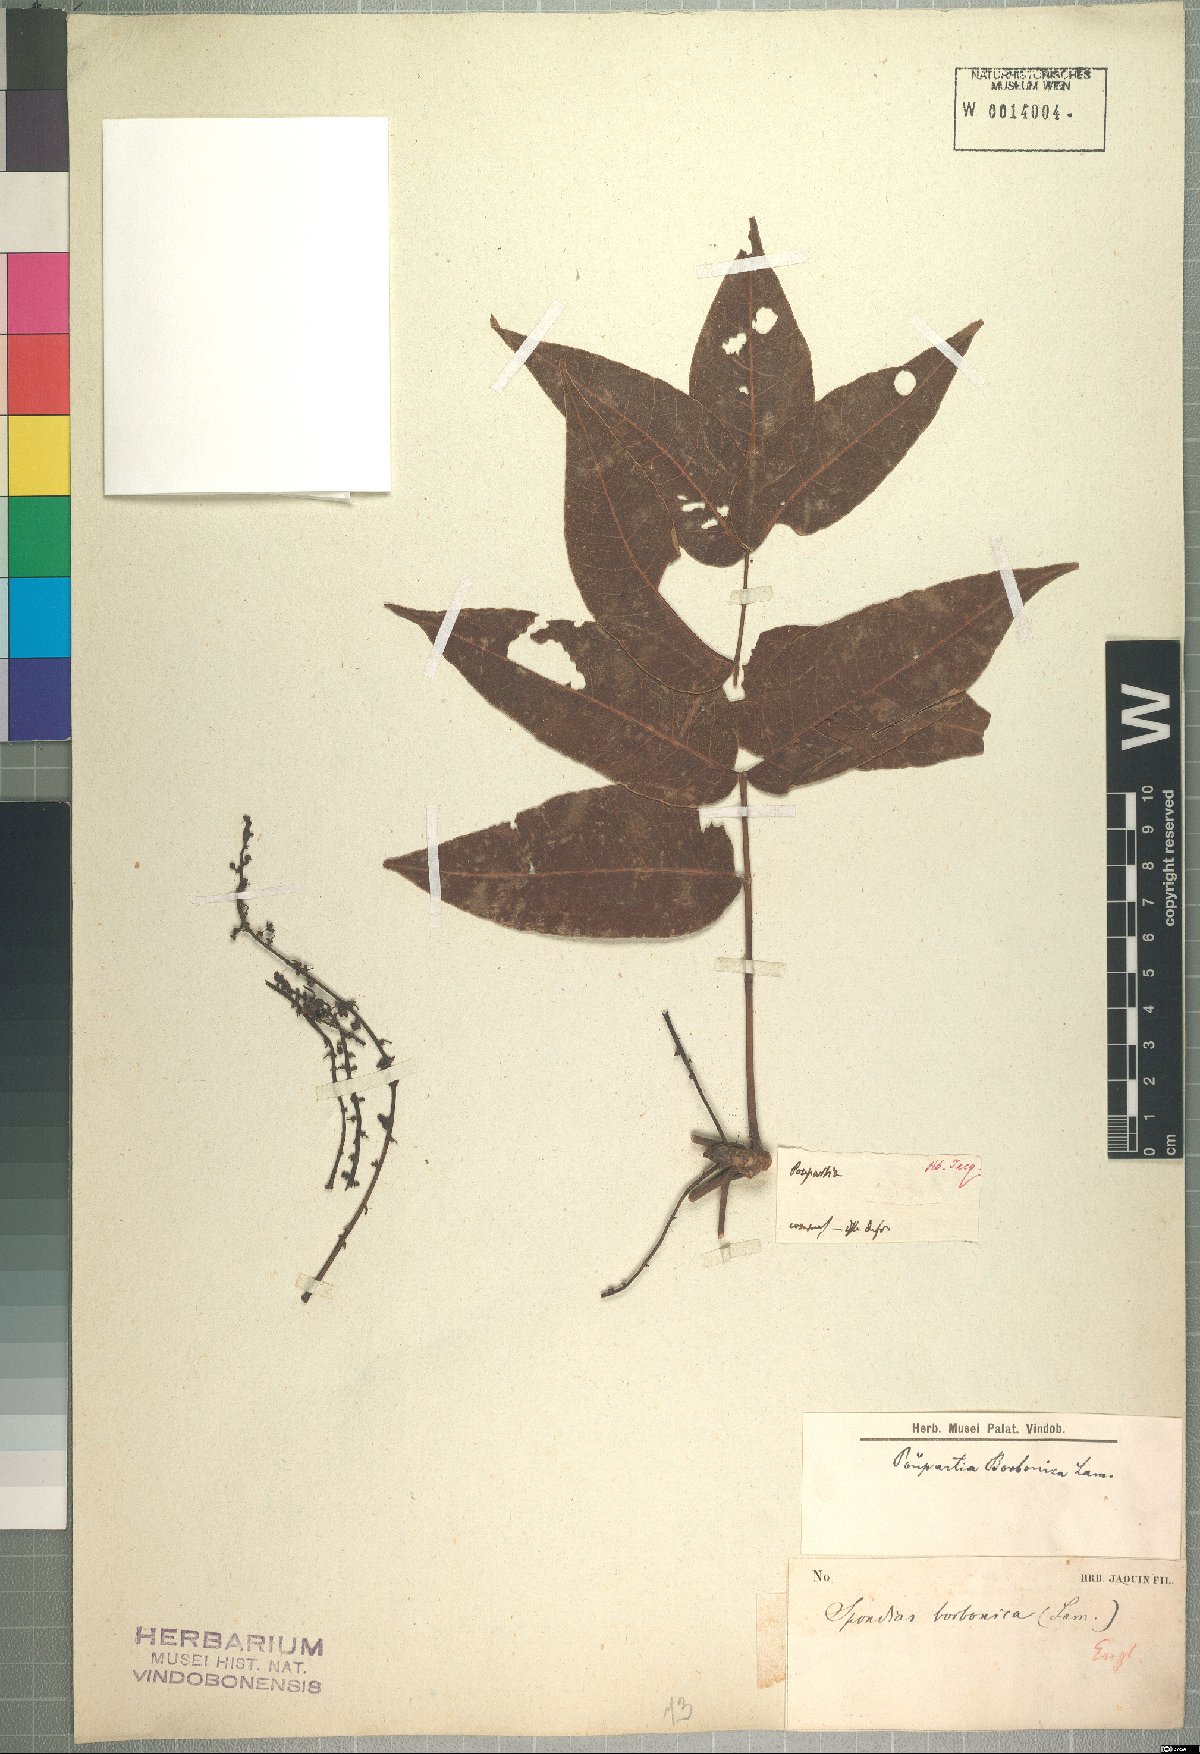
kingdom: Plantae
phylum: Tracheophyta
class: Magnoliopsida
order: Sapindales
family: Anacardiaceae
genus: Poupartia
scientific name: Poupartia borbonica
